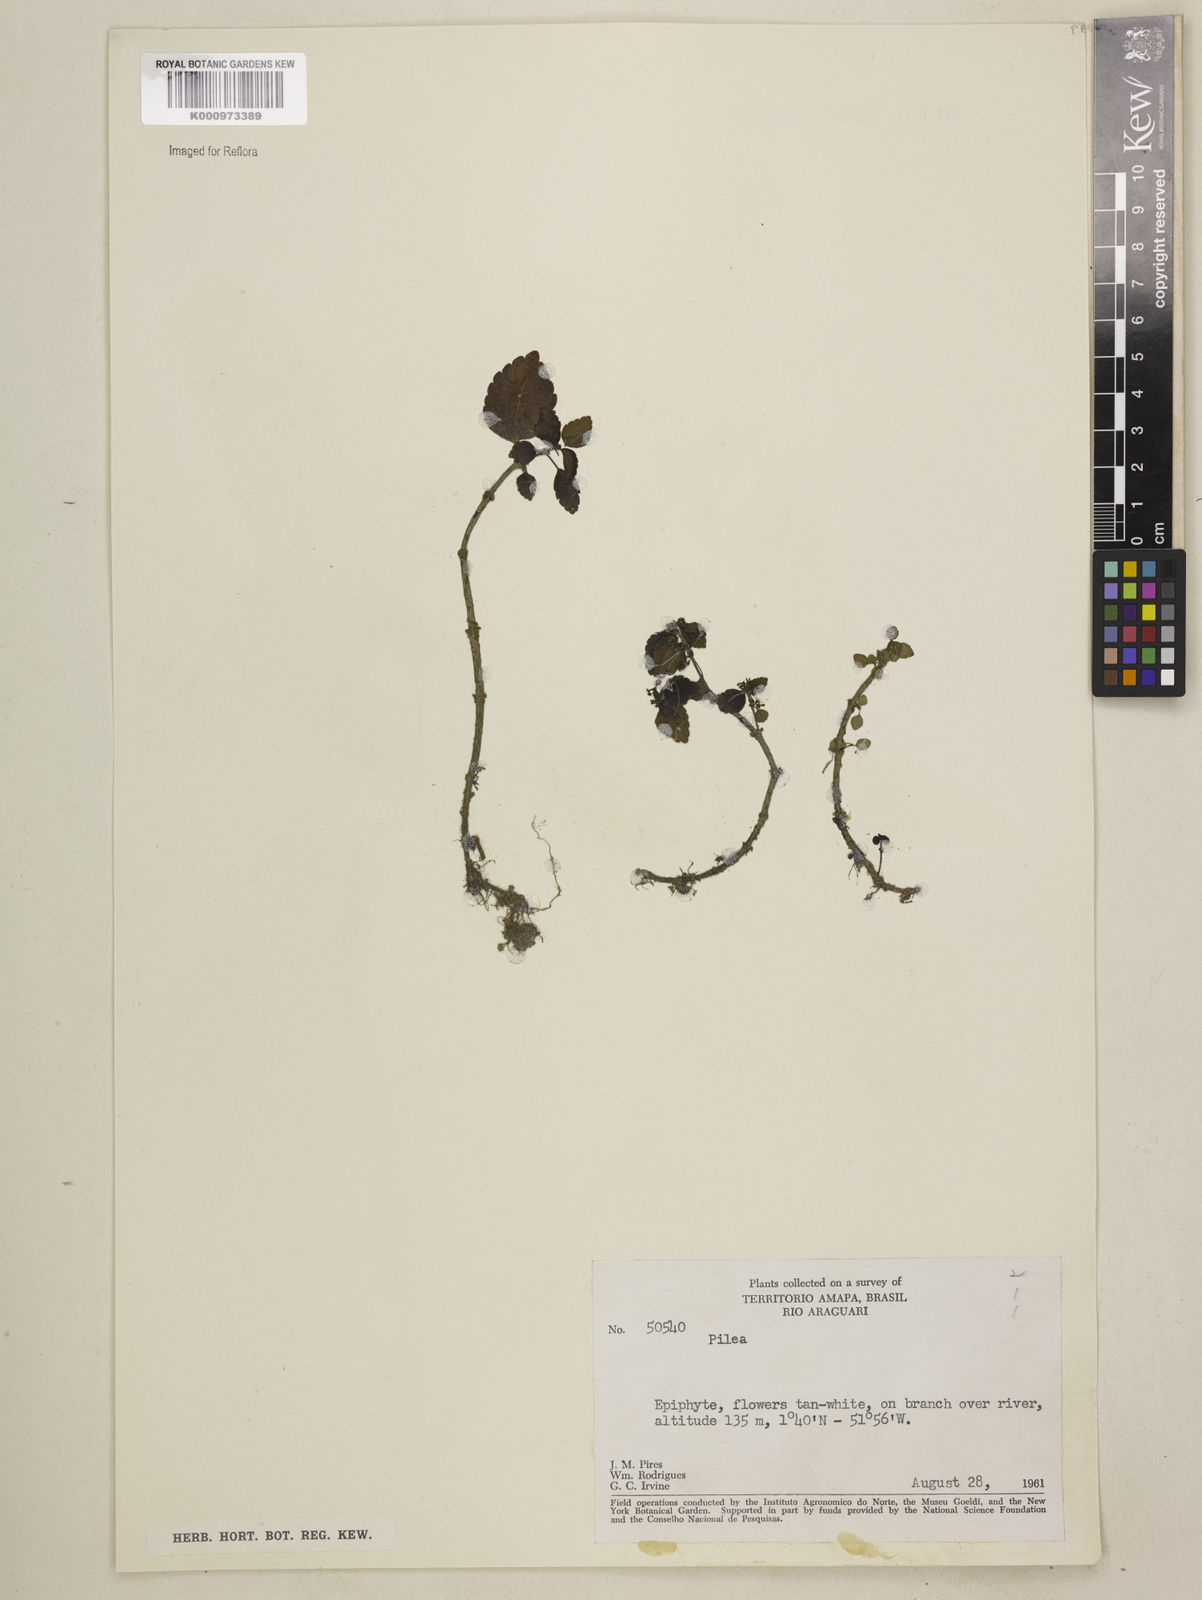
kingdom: Plantae
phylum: Tracheophyta
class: Magnoliopsida
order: Rosales
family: Urticaceae
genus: Pilea
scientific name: Pilea
